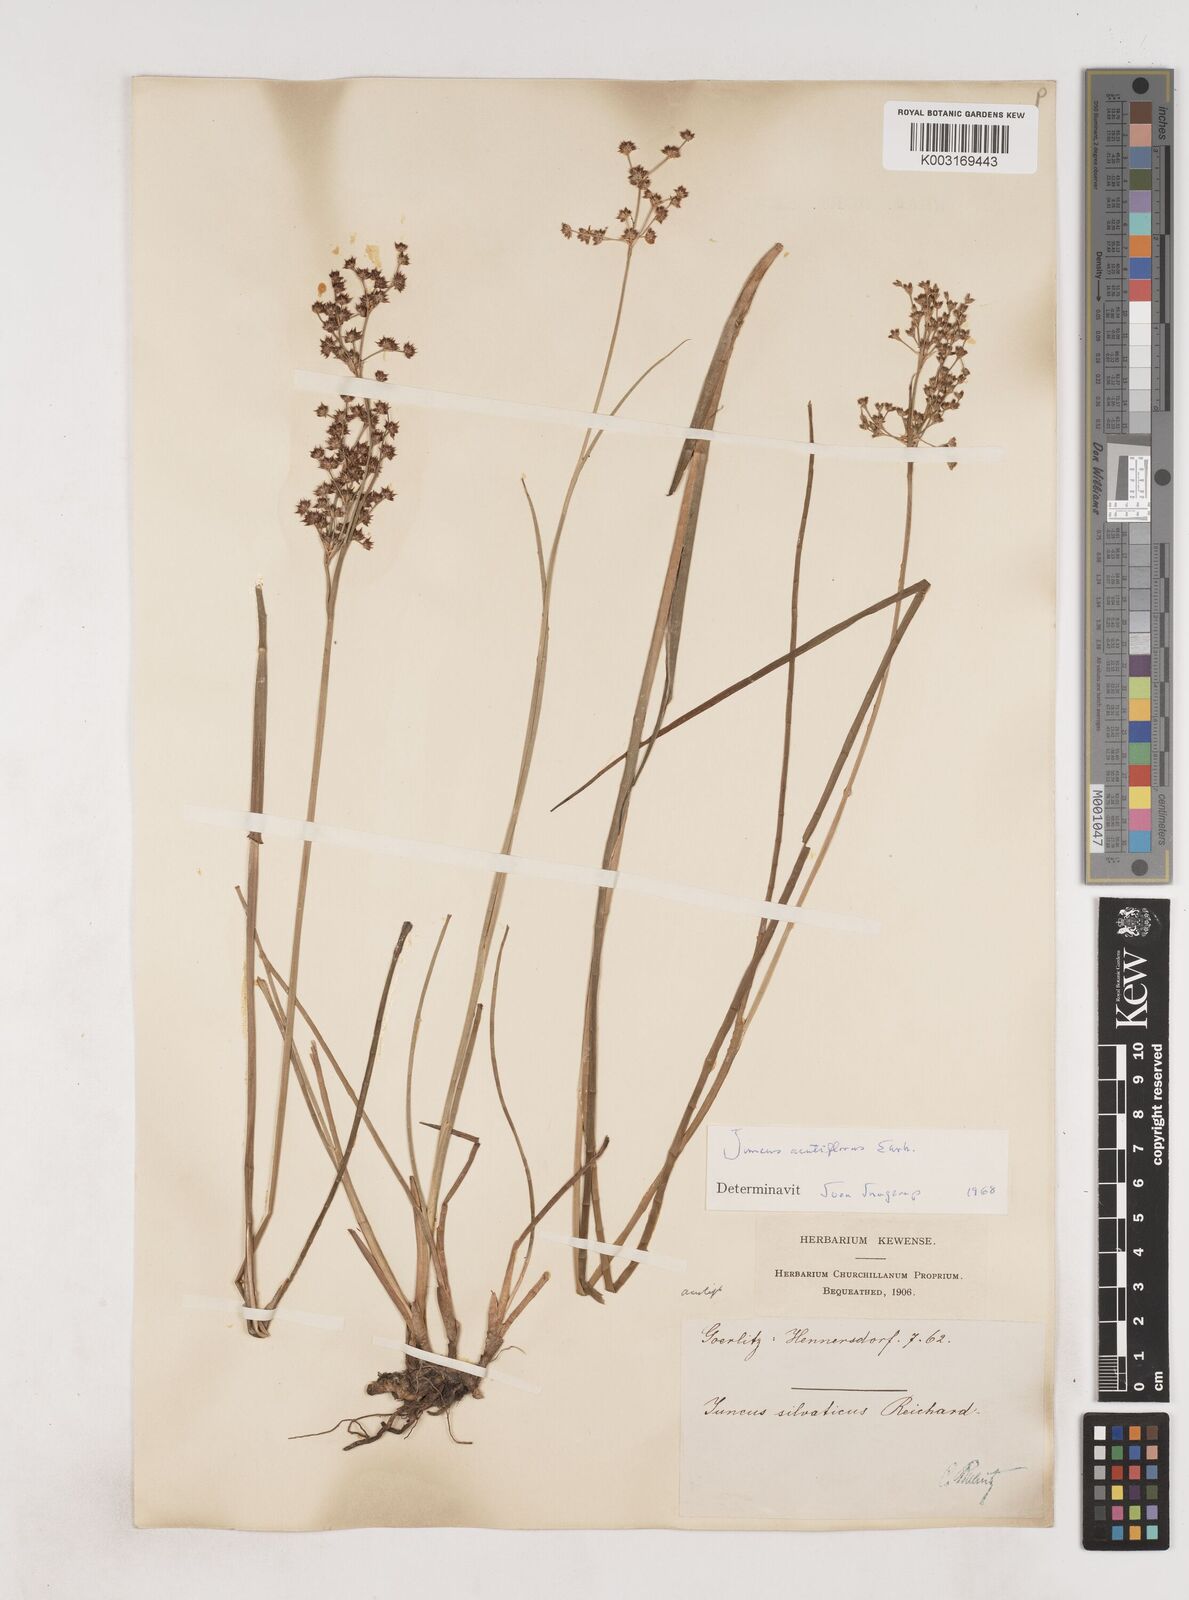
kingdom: Plantae
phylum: Tracheophyta
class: Liliopsida
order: Poales
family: Juncaceae
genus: Juncus
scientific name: Juncus acutiflorus
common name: Sharp-flowered rush
